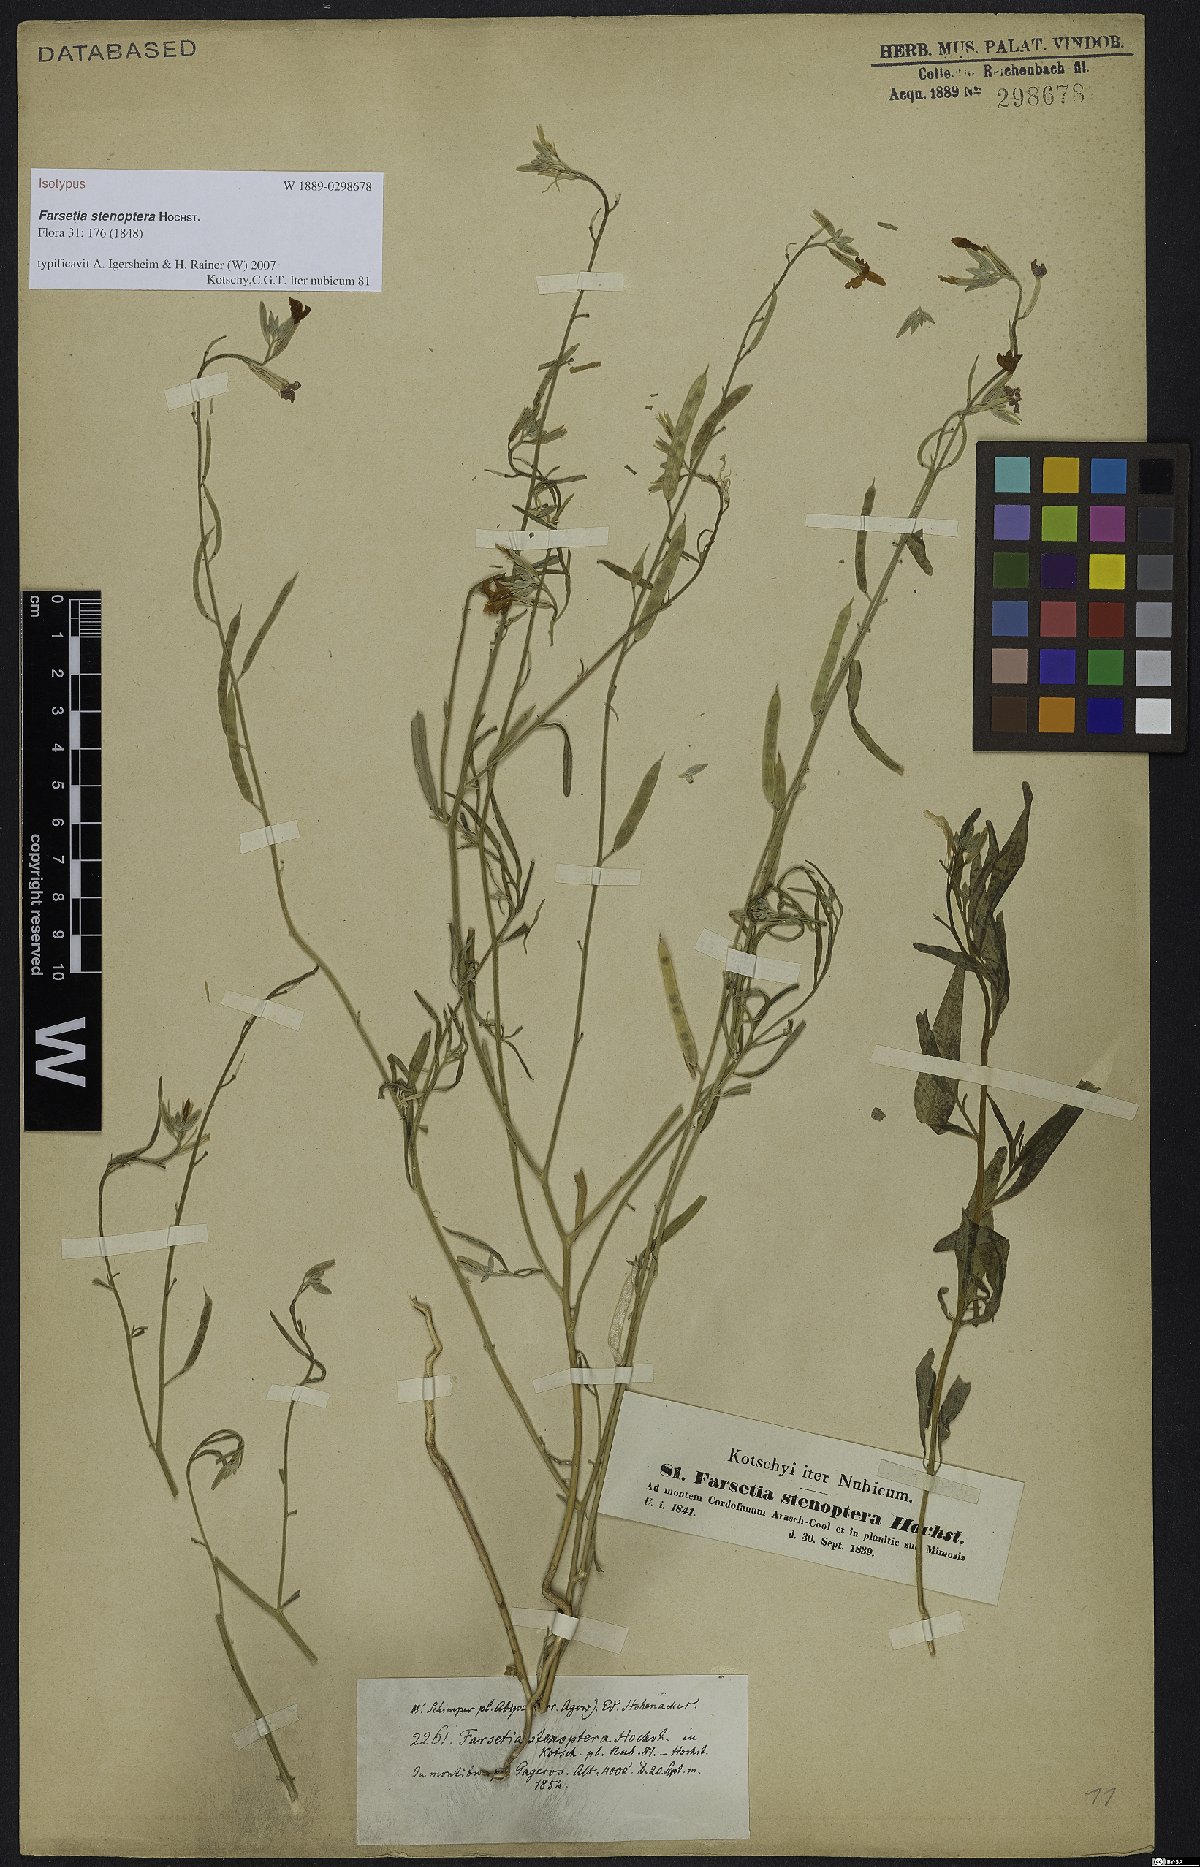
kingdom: Plantae
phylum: Tracheophyta
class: Magnoliopsida
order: Brassicales
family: Brassicaceae
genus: Farsetia
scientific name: Farsetia stenoptera
